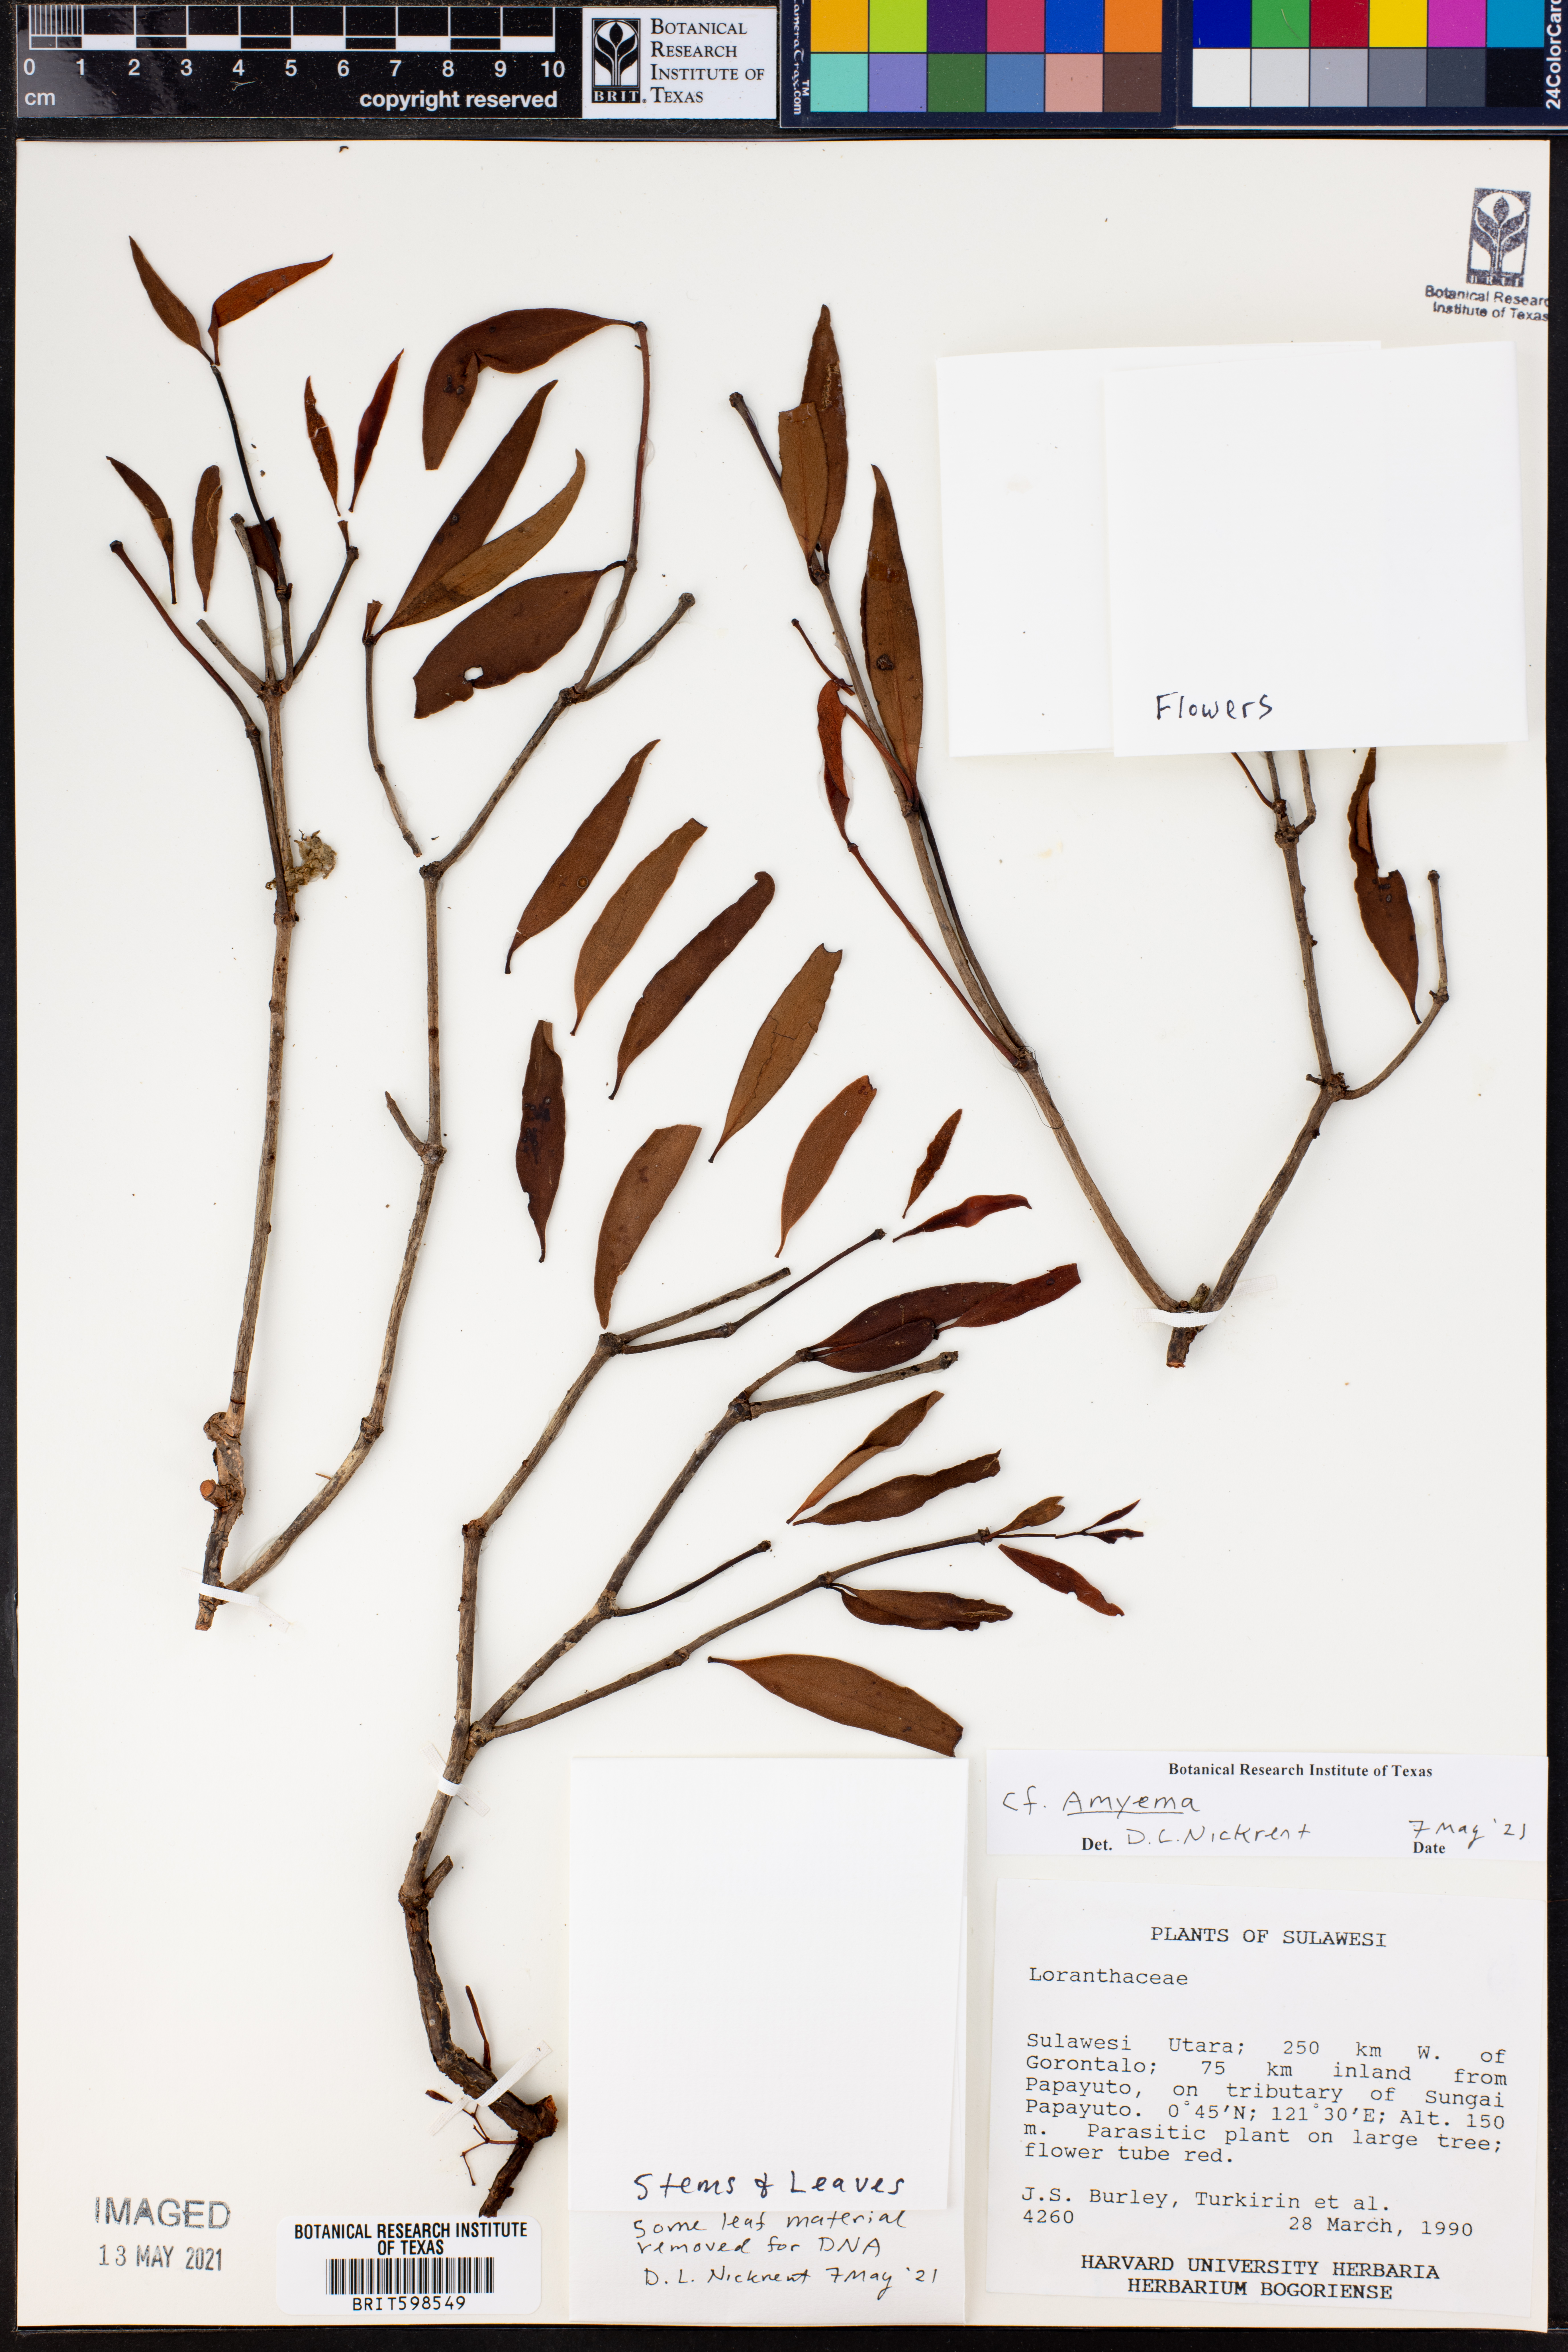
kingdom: Plantae
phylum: Tracheophyta
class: Magnoliopsida
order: Santalales
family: Loranthaceae
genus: Amyema
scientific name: Amyema
